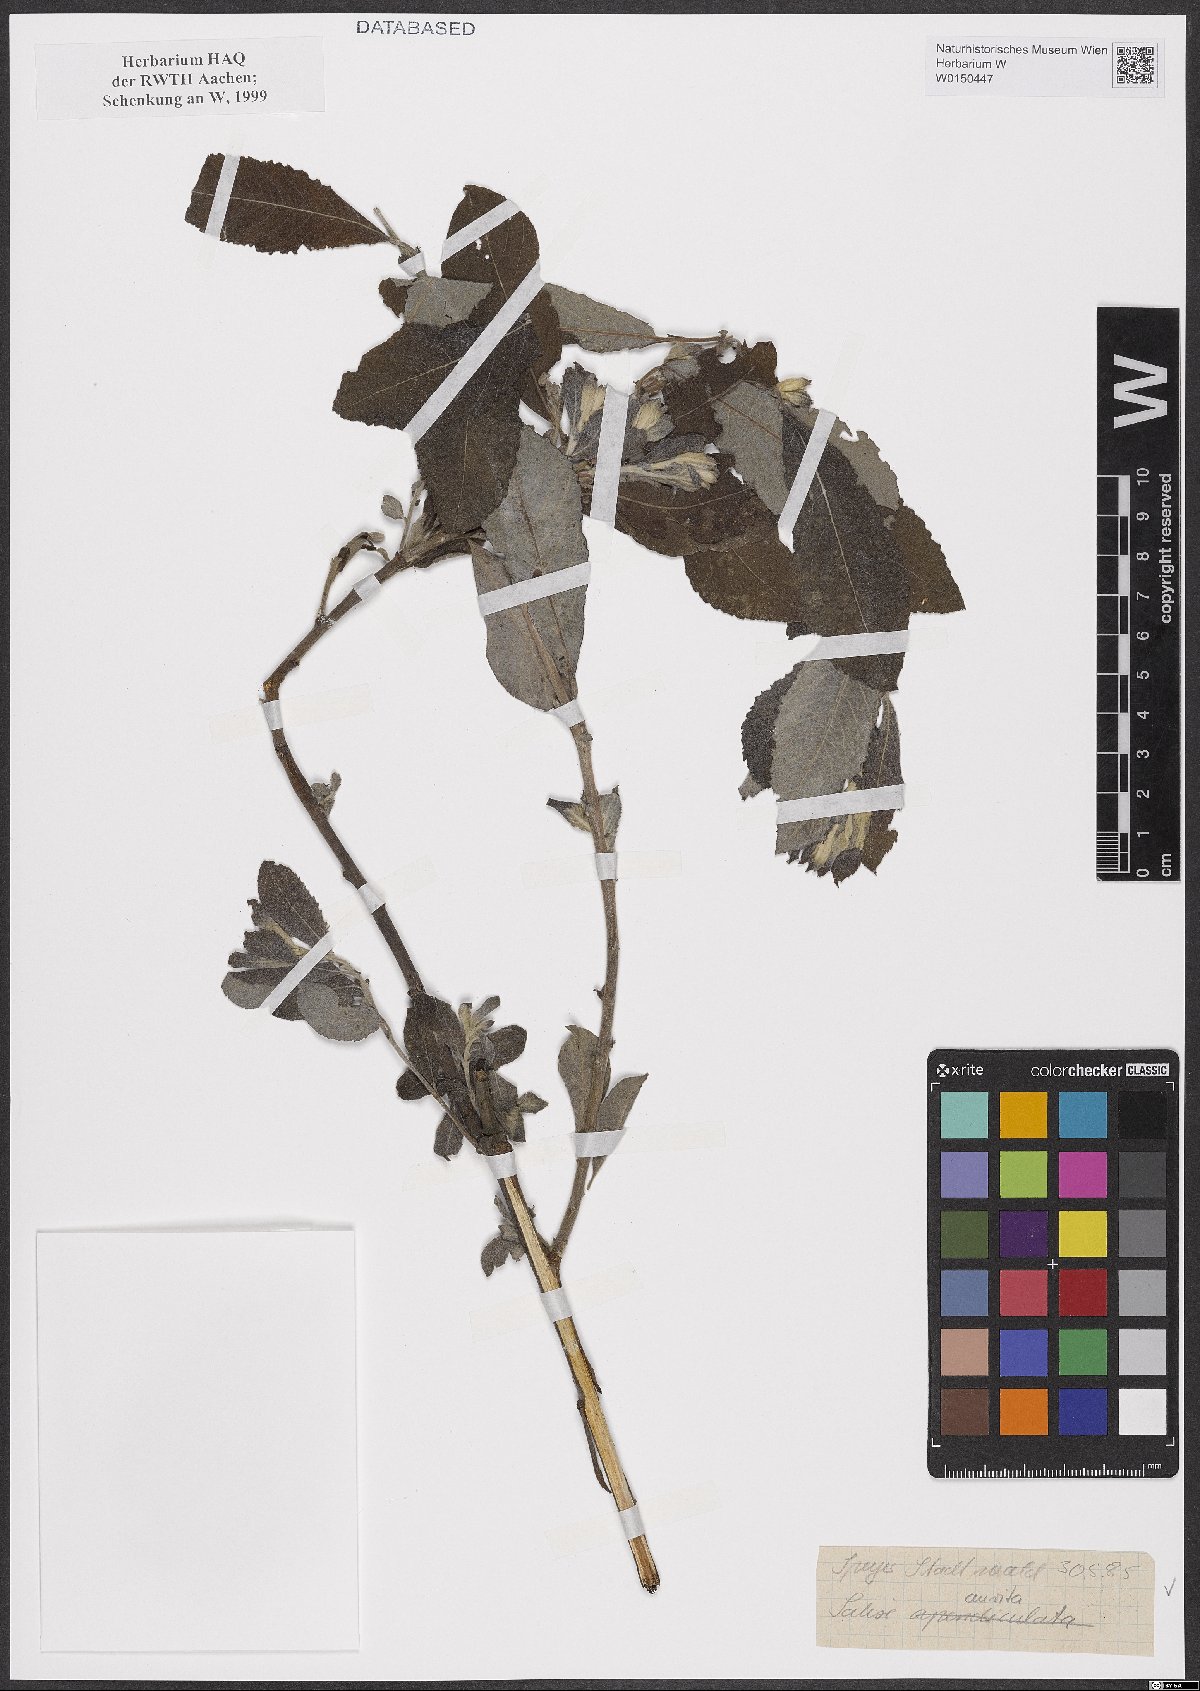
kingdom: Plantae
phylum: Tracheophyta
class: Magnoliopsida
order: Malpighiales
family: Salicaceae
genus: Salix
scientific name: Salix aurita
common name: Eared willow
